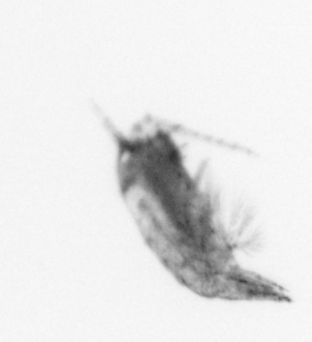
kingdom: Animalia
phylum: Arthropoda
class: Copepoda
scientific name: Copepoda
